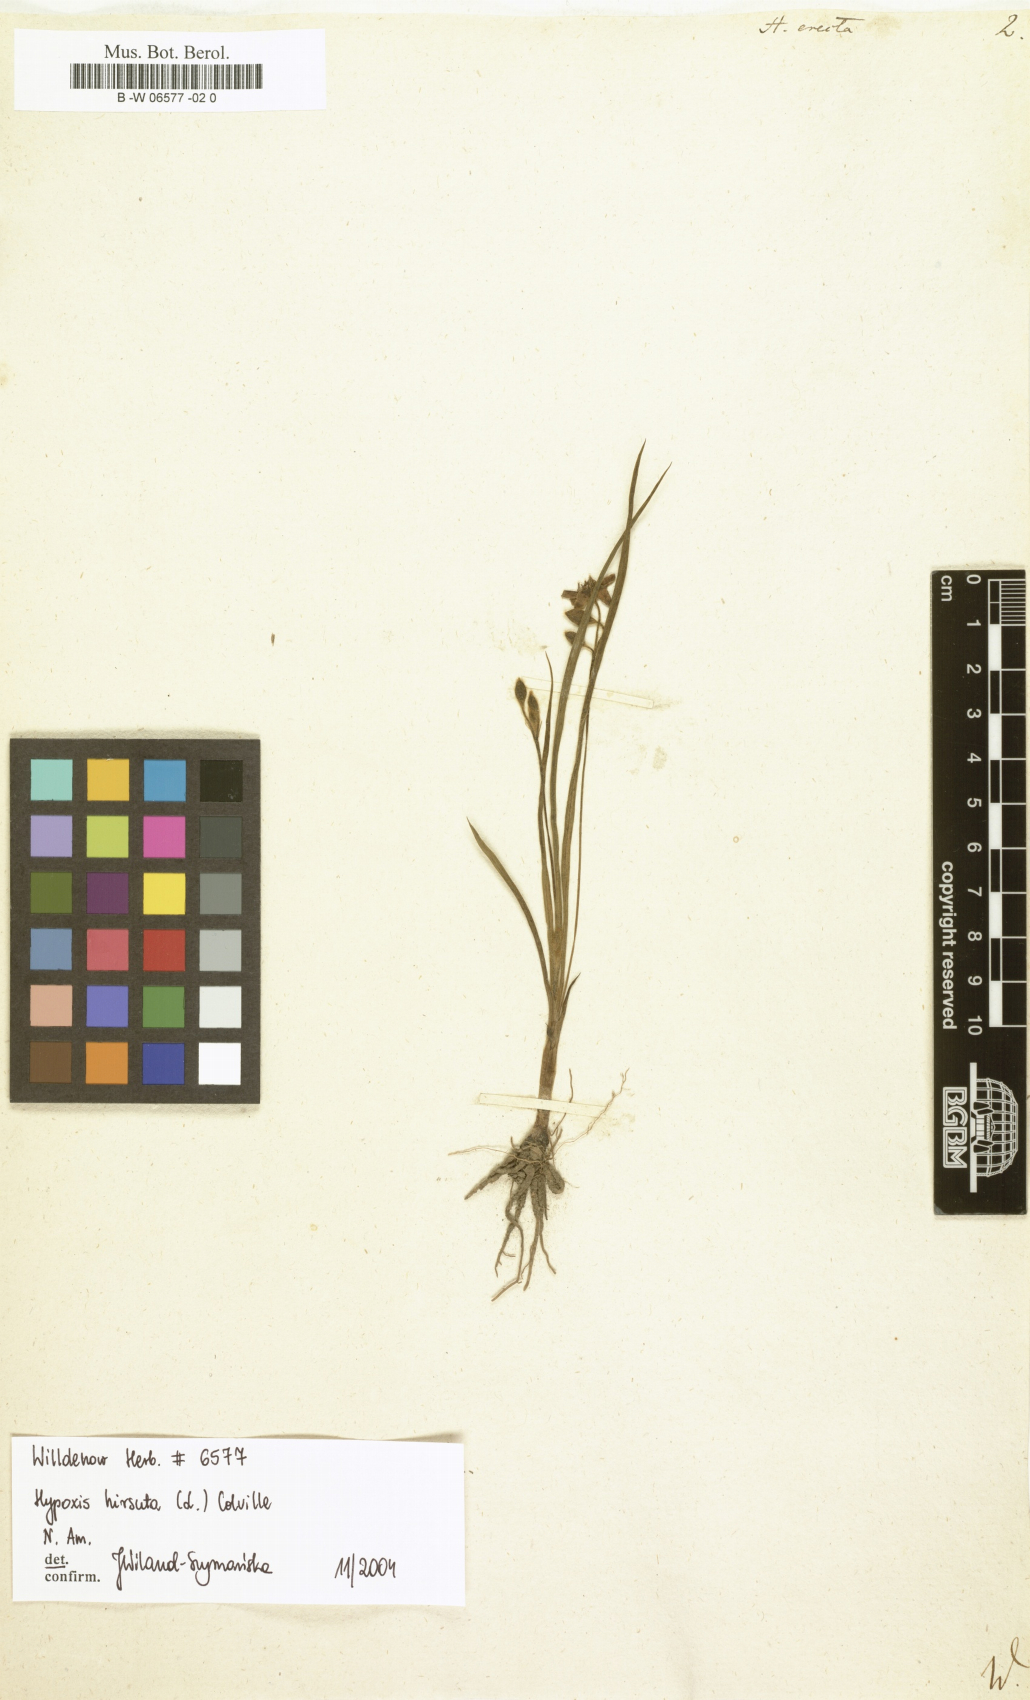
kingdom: Plantae
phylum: Tracheophyta
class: Liliopsida
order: Asparagales
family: Hypoxidaceae
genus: Hypoxis
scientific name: Hypoxis hirsuta
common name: Common goldstar
